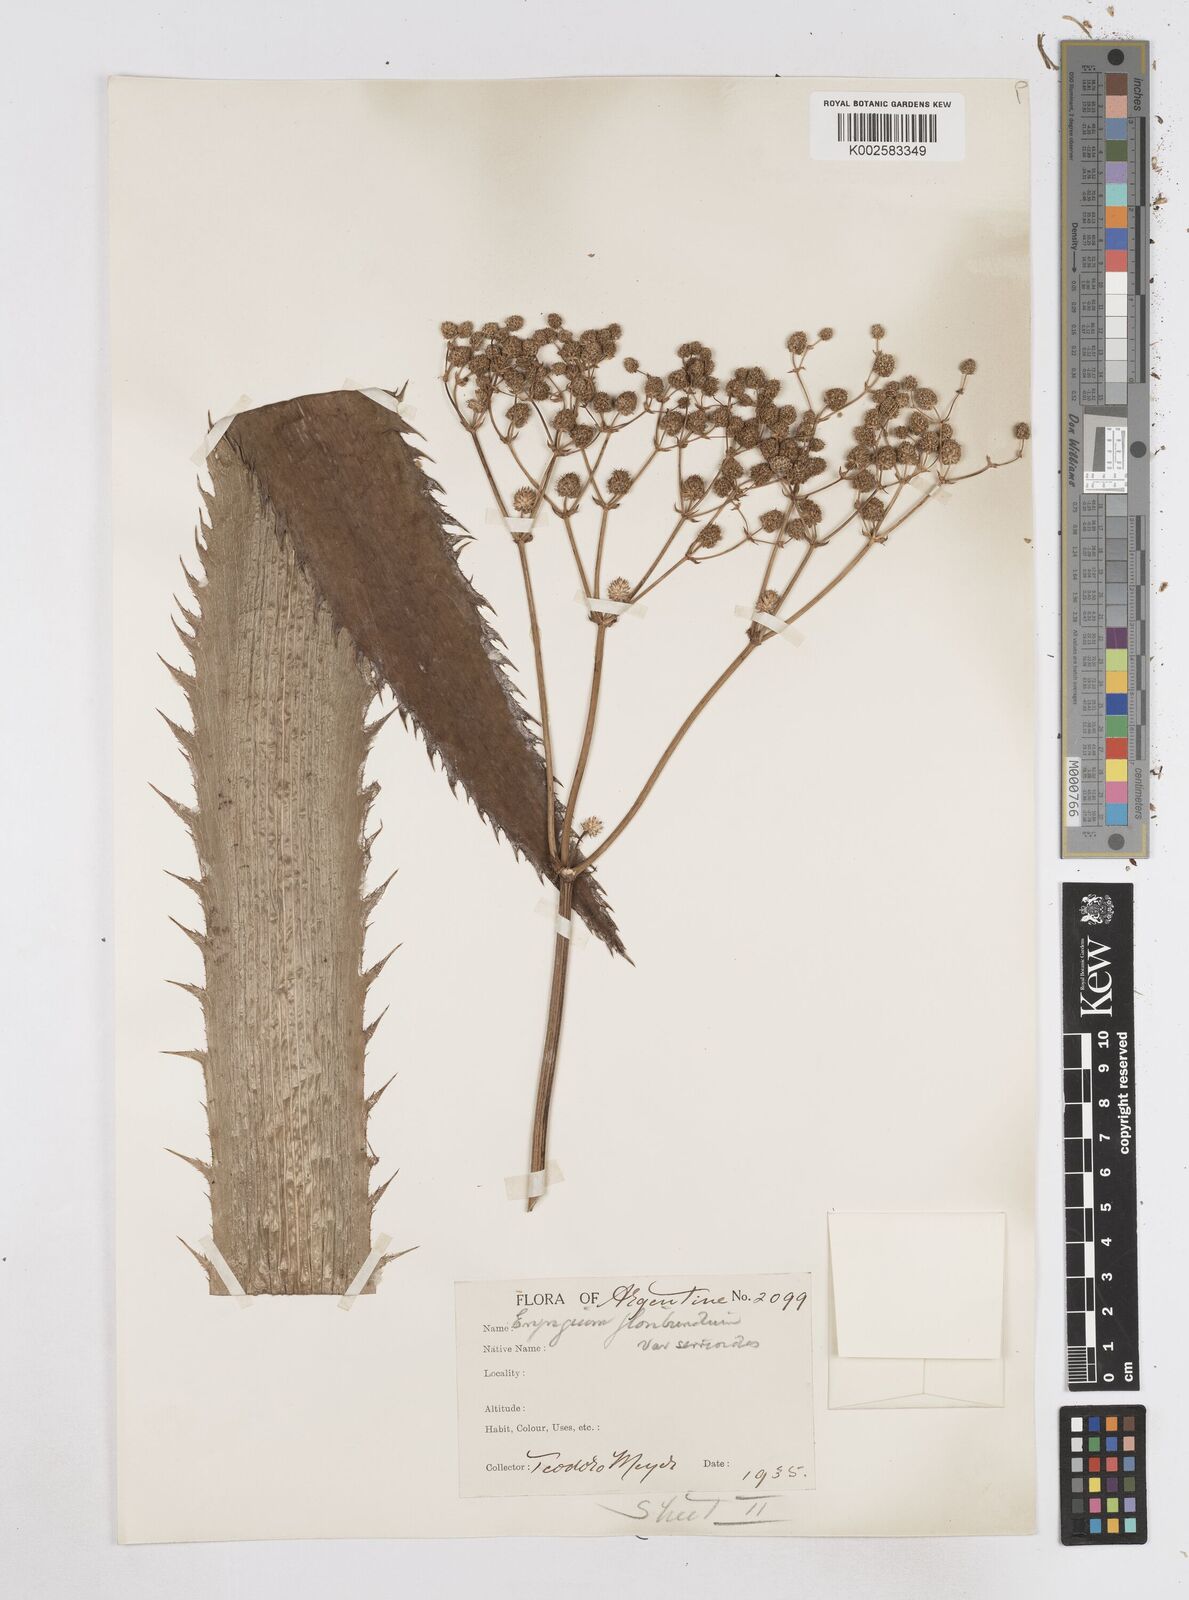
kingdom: Plantae
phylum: Tracheophyta
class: Magnoliopsida
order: Apiales
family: Apiaceae
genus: Eryngium
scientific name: Eryngium floribundum
